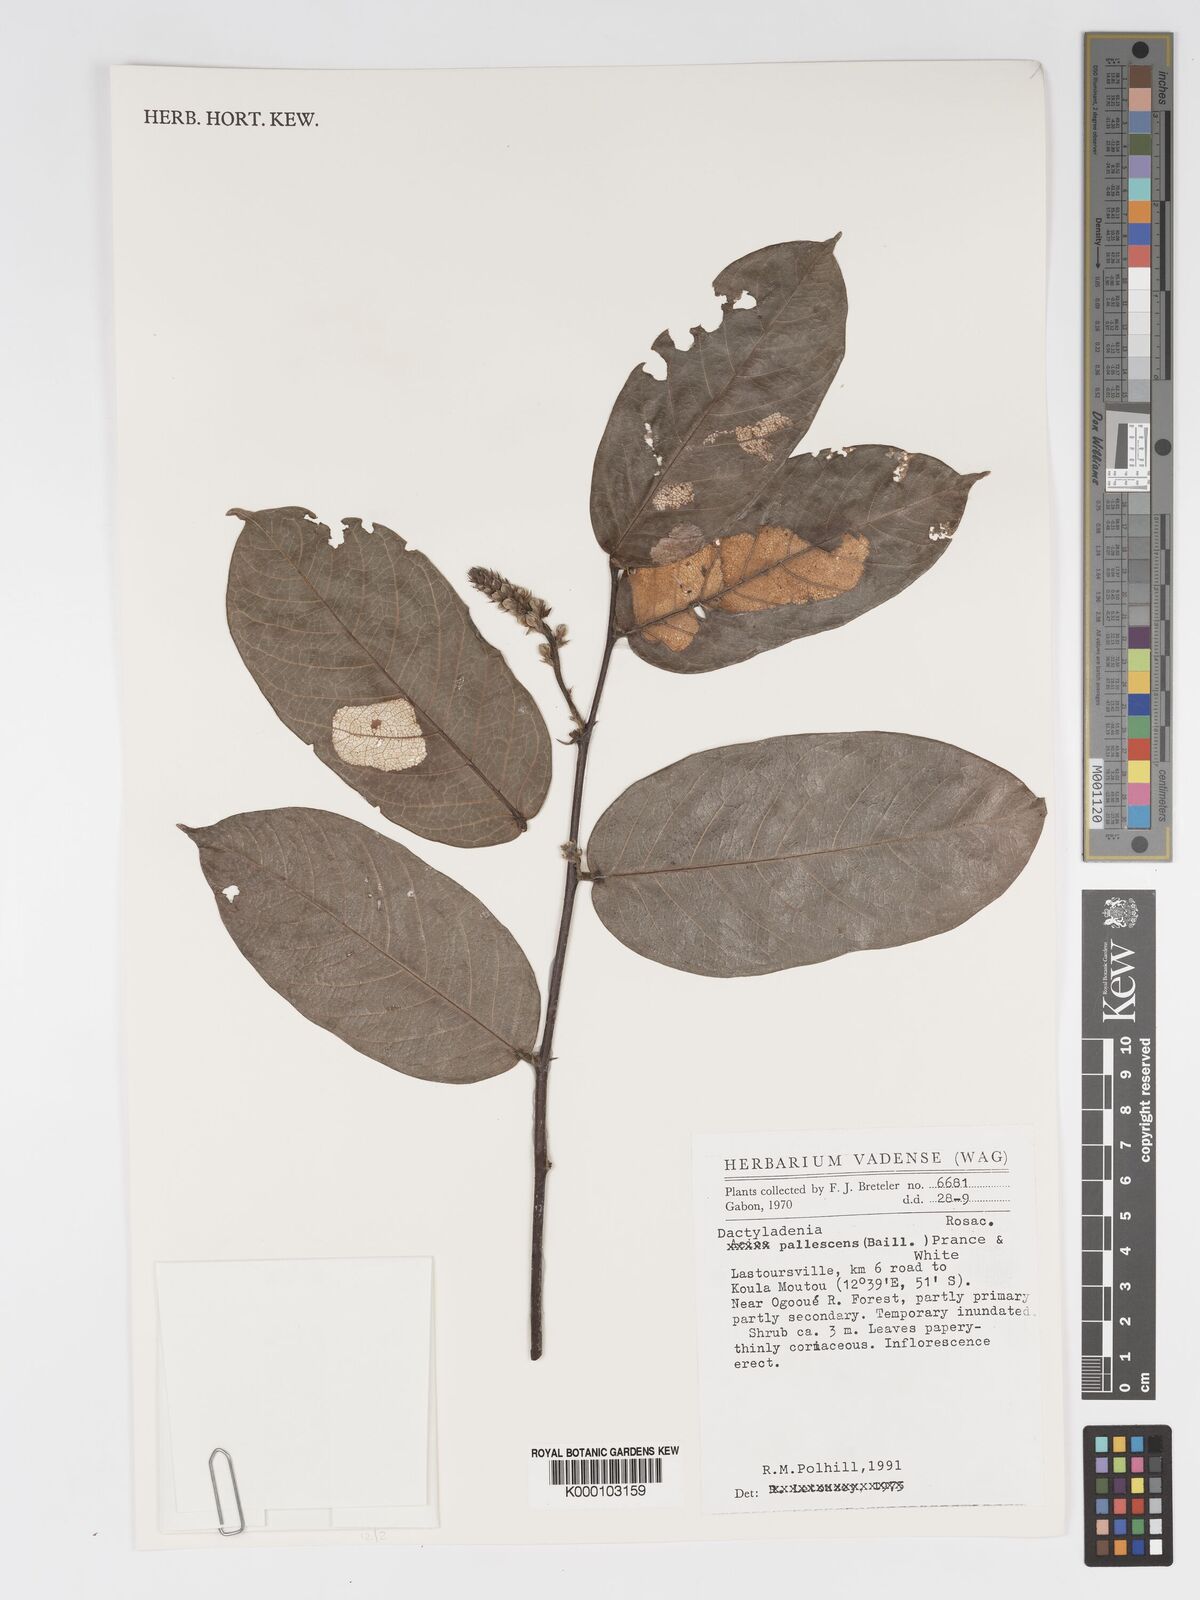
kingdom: Plantae
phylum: Tracheophyta
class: Magnoliopsida
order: Malpighiales
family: Chrysobalanaceae
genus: Dactyladenia
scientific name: Dactyladenia pallescens
